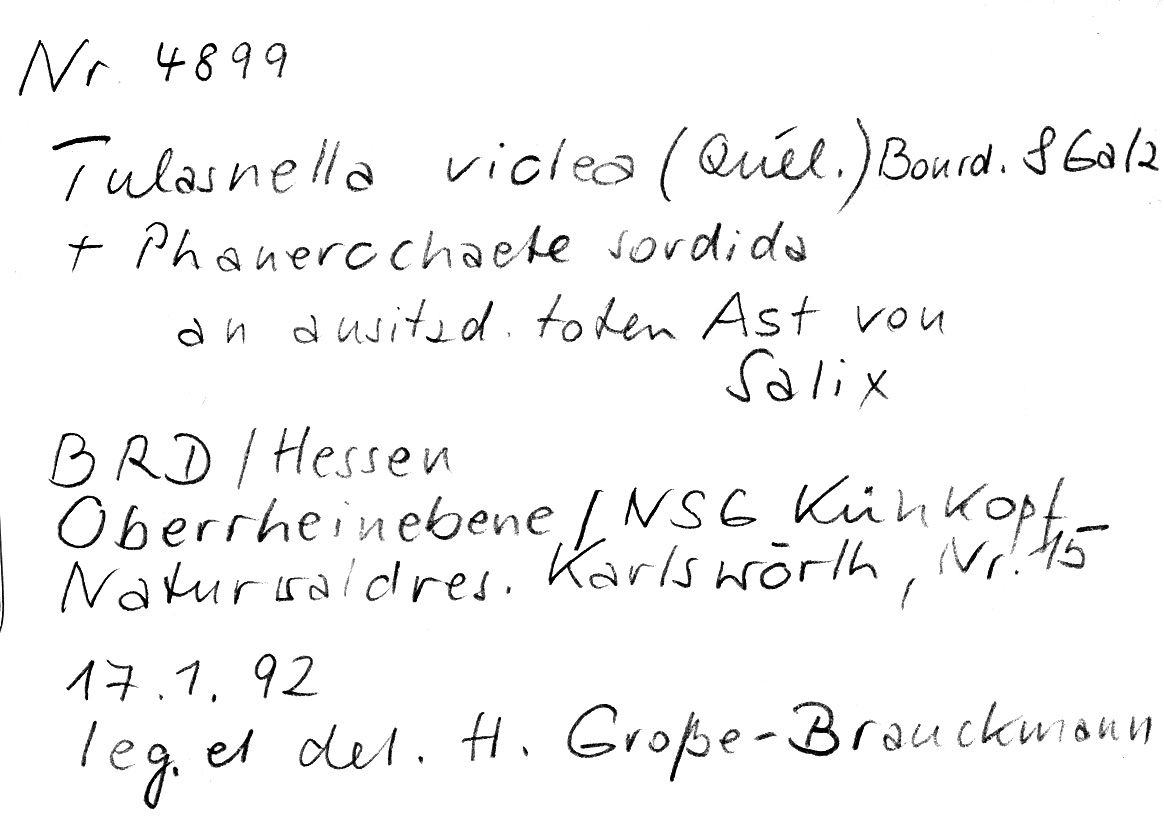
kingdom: Plantae
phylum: Tracheophyta
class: Magnoliopsida
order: Malpighiales
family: Salicaceae
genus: Salix
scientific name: Salix
